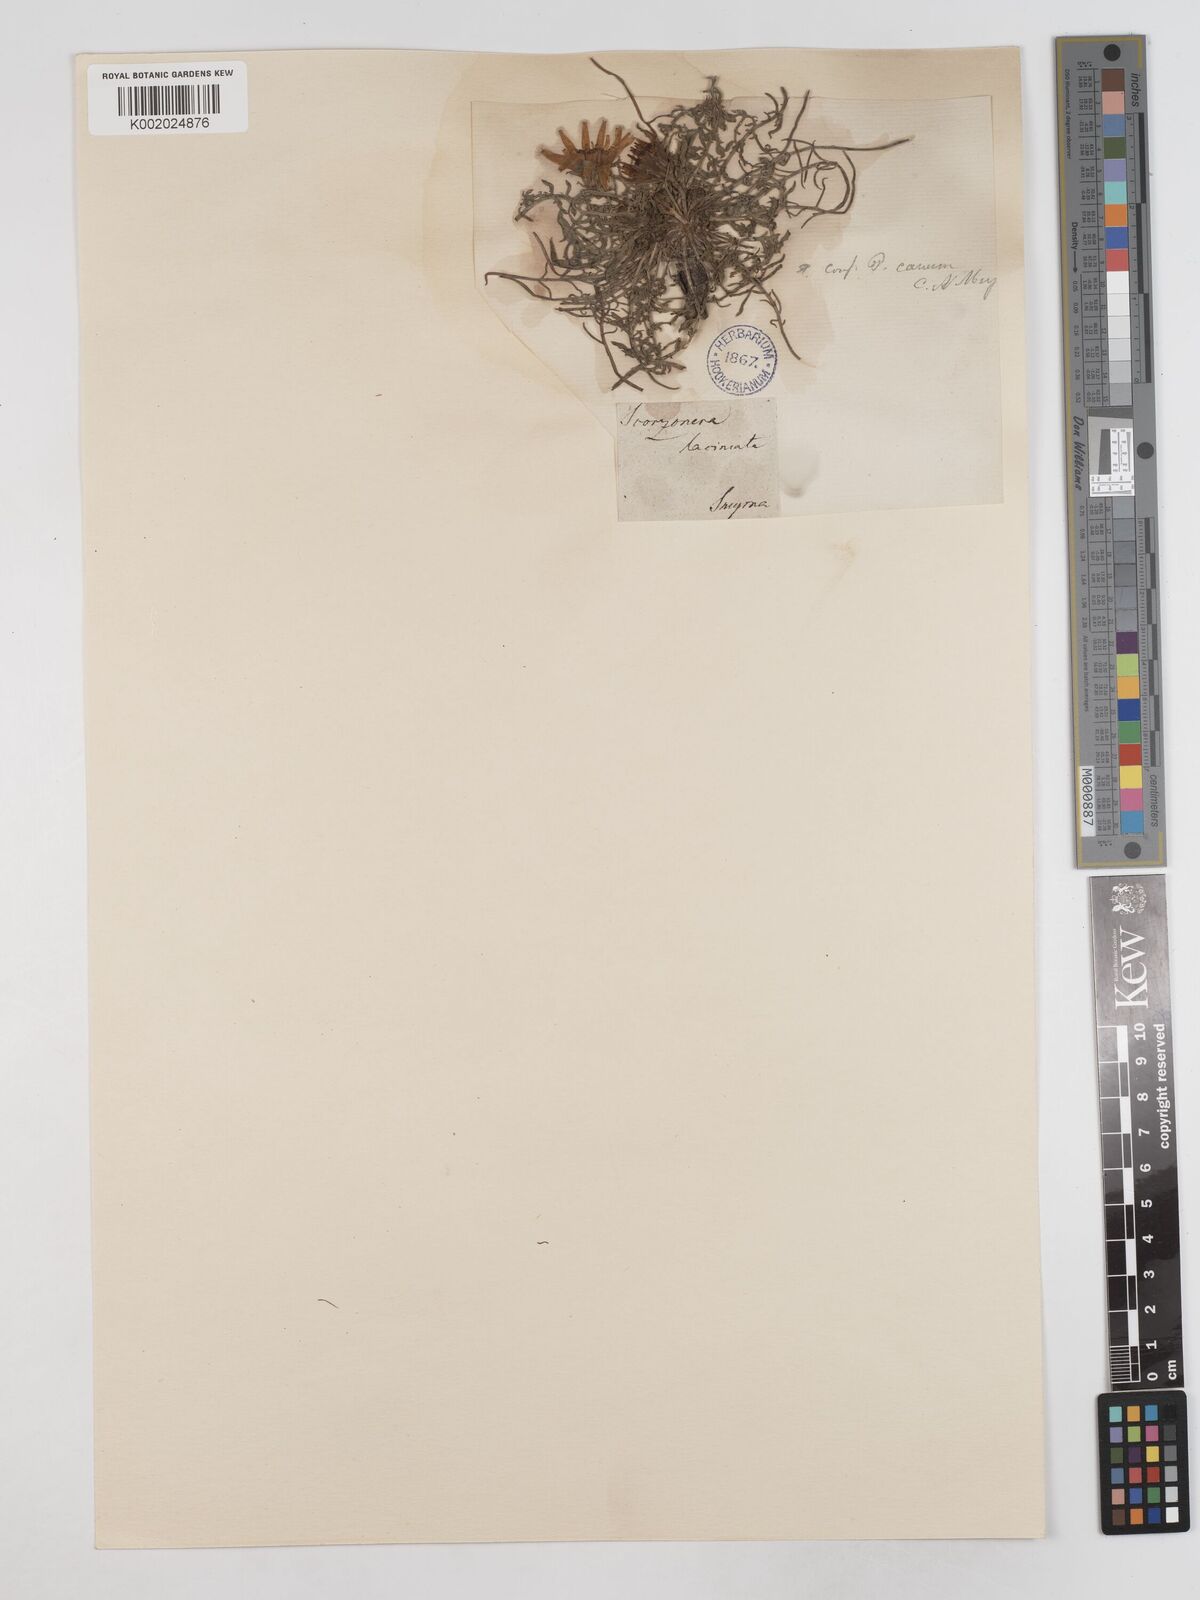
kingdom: Plantae
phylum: Tracheophyta
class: Magnoliopsida
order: Asterales
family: Asteraceae
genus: Scorzonera
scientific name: Scorzonera cana
